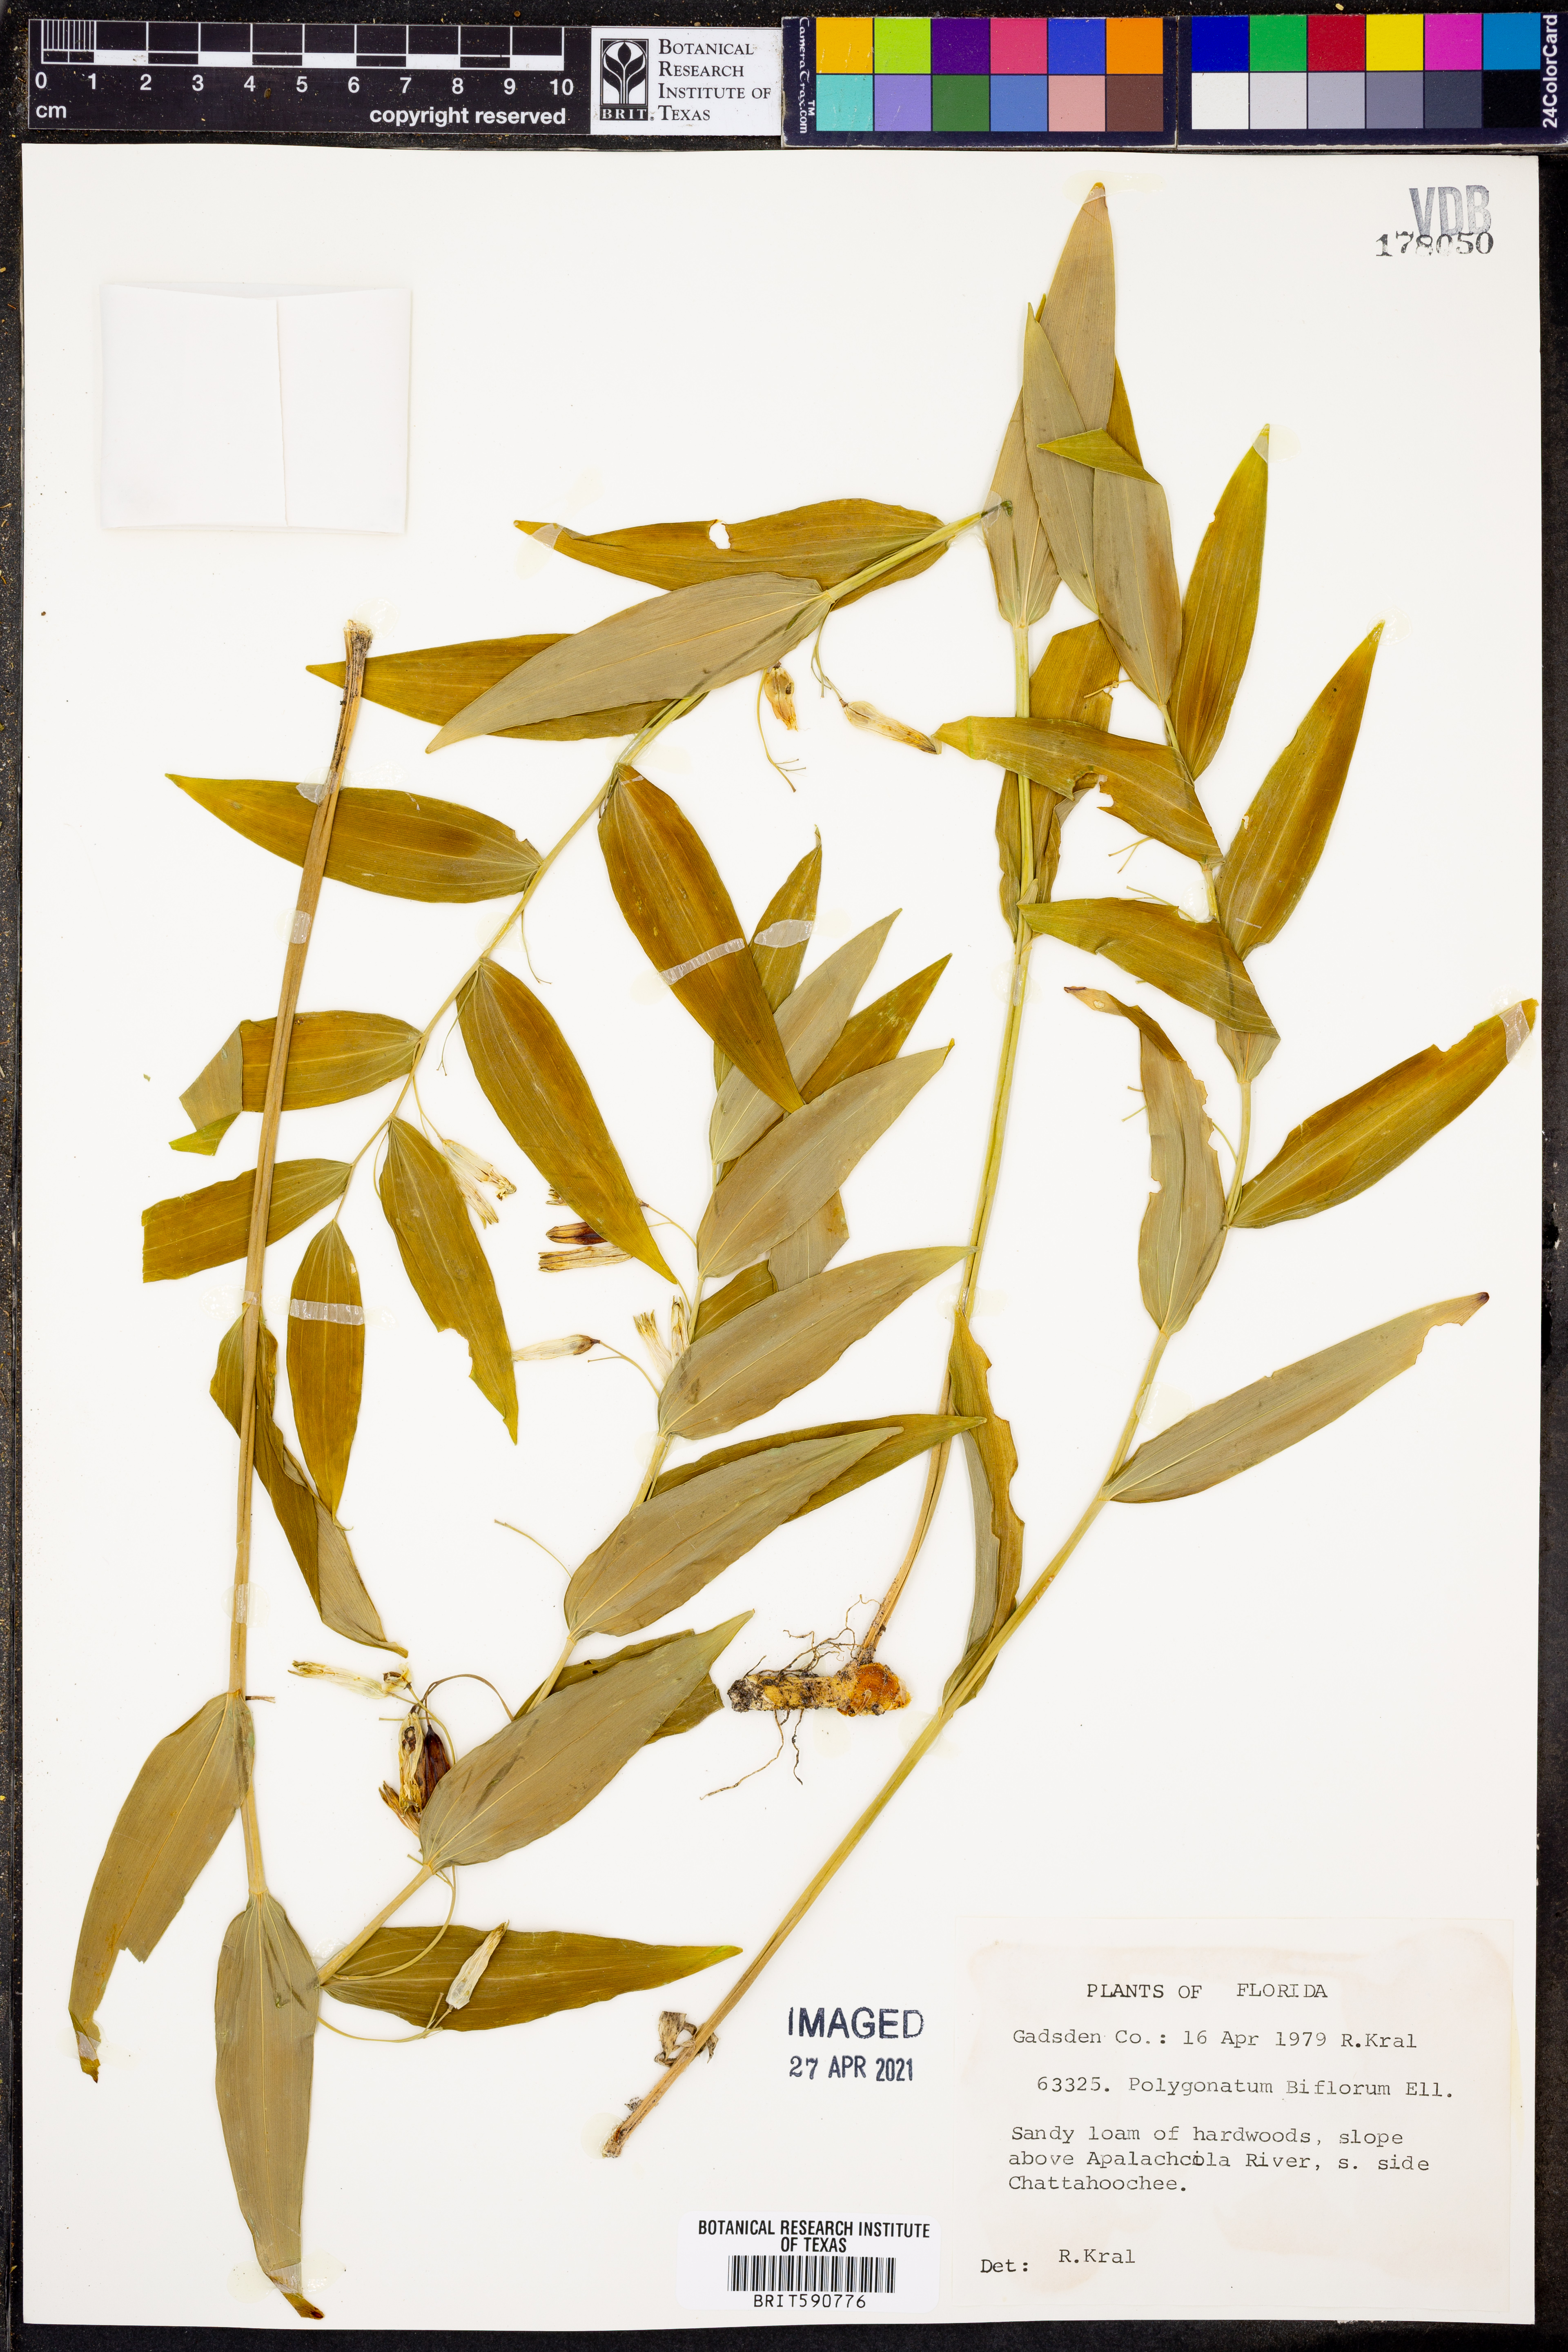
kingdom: Plantae
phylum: Tracheophyta
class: Liliopsida
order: Asparagales
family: Asparagaceae
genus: Polygonatum
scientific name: Polygonatum biflorum
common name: American solomon's-seal
